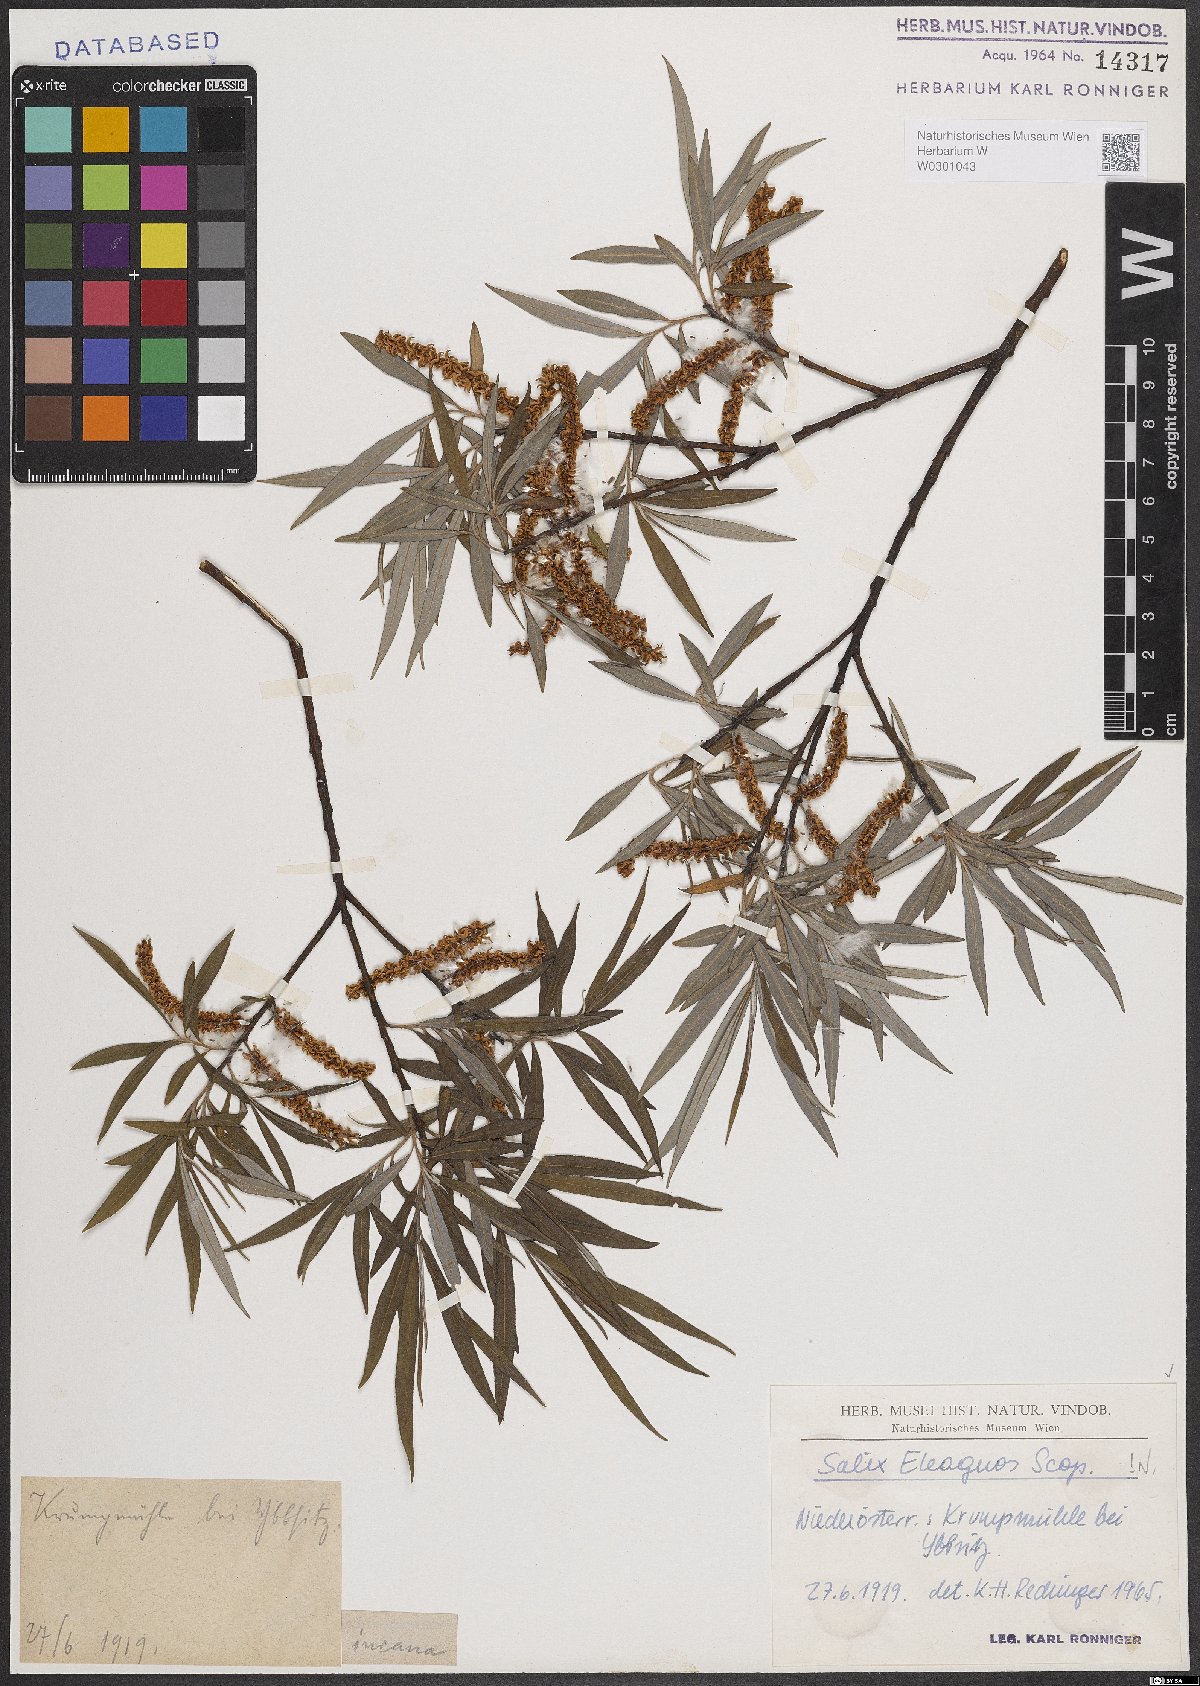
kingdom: Plantae
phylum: Tracheophyta
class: Magnoliopsida
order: Malpighiales
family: Salicaceae
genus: Salix
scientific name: Salix eleagnos
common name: Elaeagnus willow
